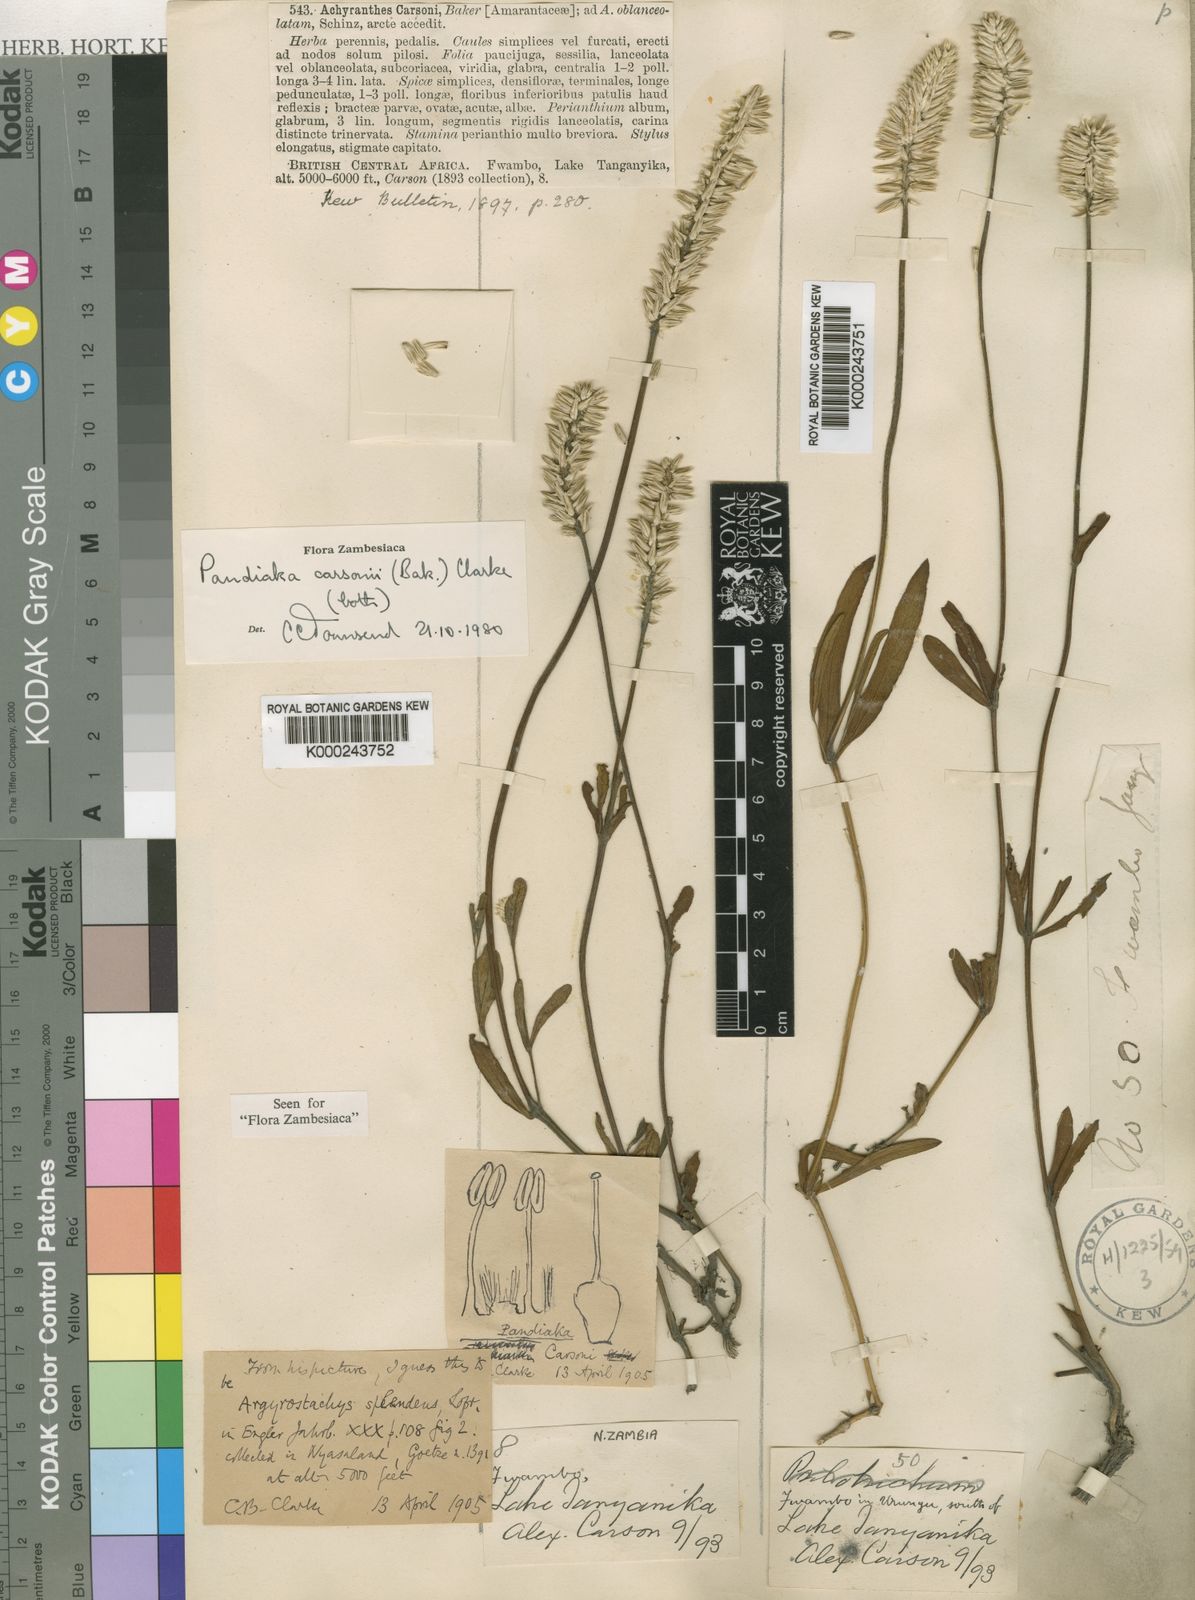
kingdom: Plantae
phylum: Tracheophyta
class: Magnoliopsida
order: Caryophyllales
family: Amaranthaceae
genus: Pandiaka
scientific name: Pandiaka carsonii
